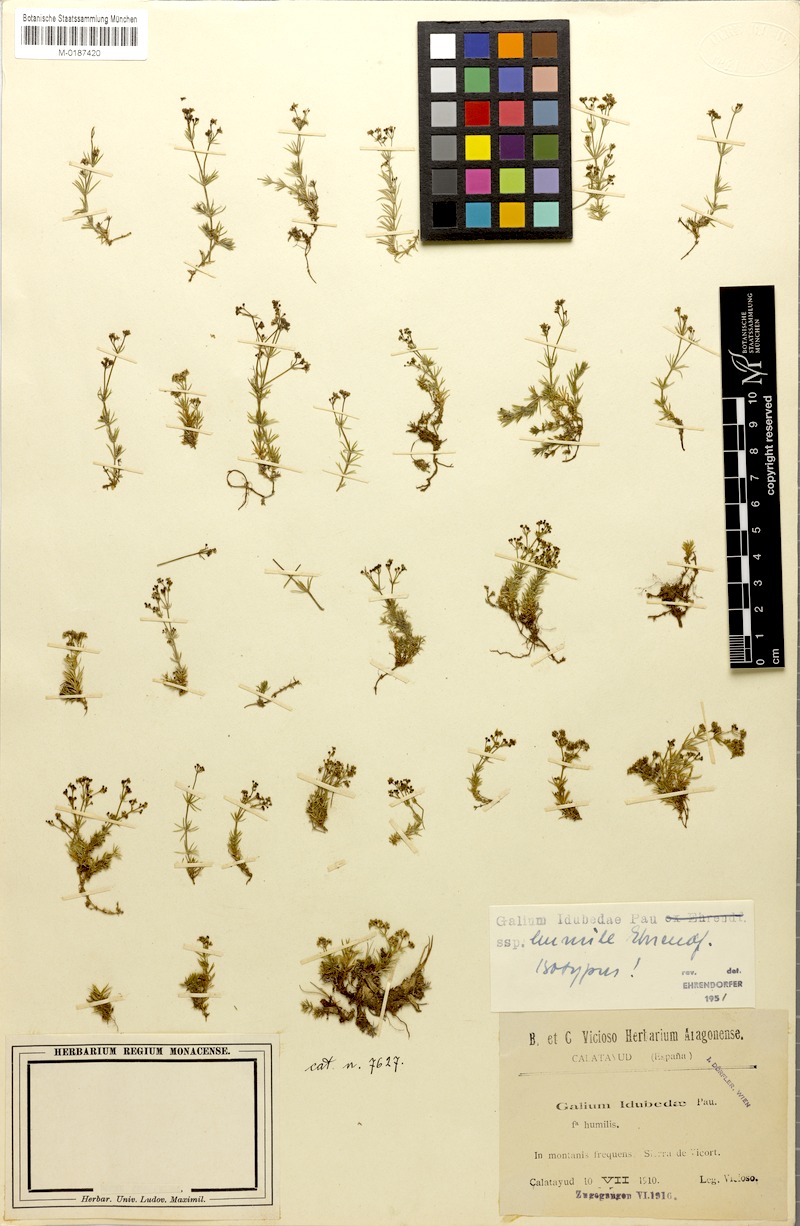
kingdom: Plantae
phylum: Tracheophyta
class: Magnoliopsida
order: Gentianales
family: Rubiaceae
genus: Galium
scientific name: Galium idubedae
